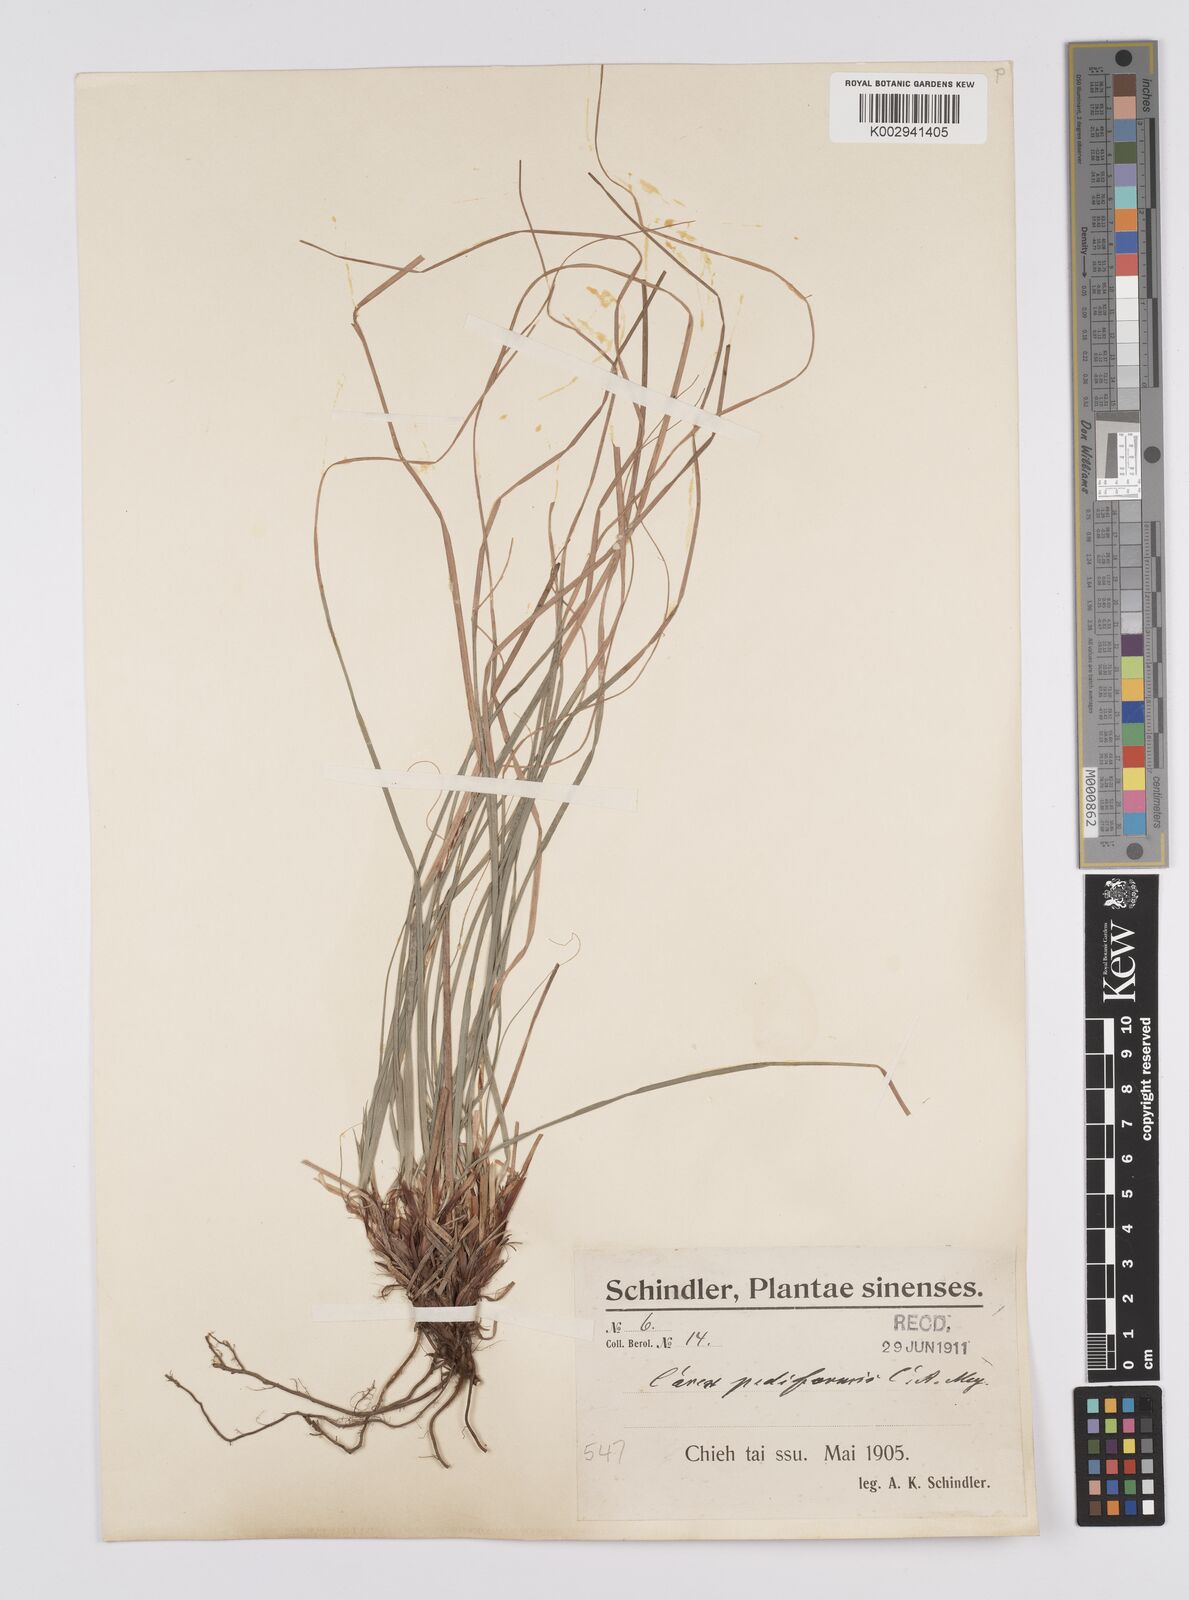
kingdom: Plantae
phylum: Tracheophyta
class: Liliopsida
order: Poales
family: Cyperaceae
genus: Carex
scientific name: Carex pediformis
